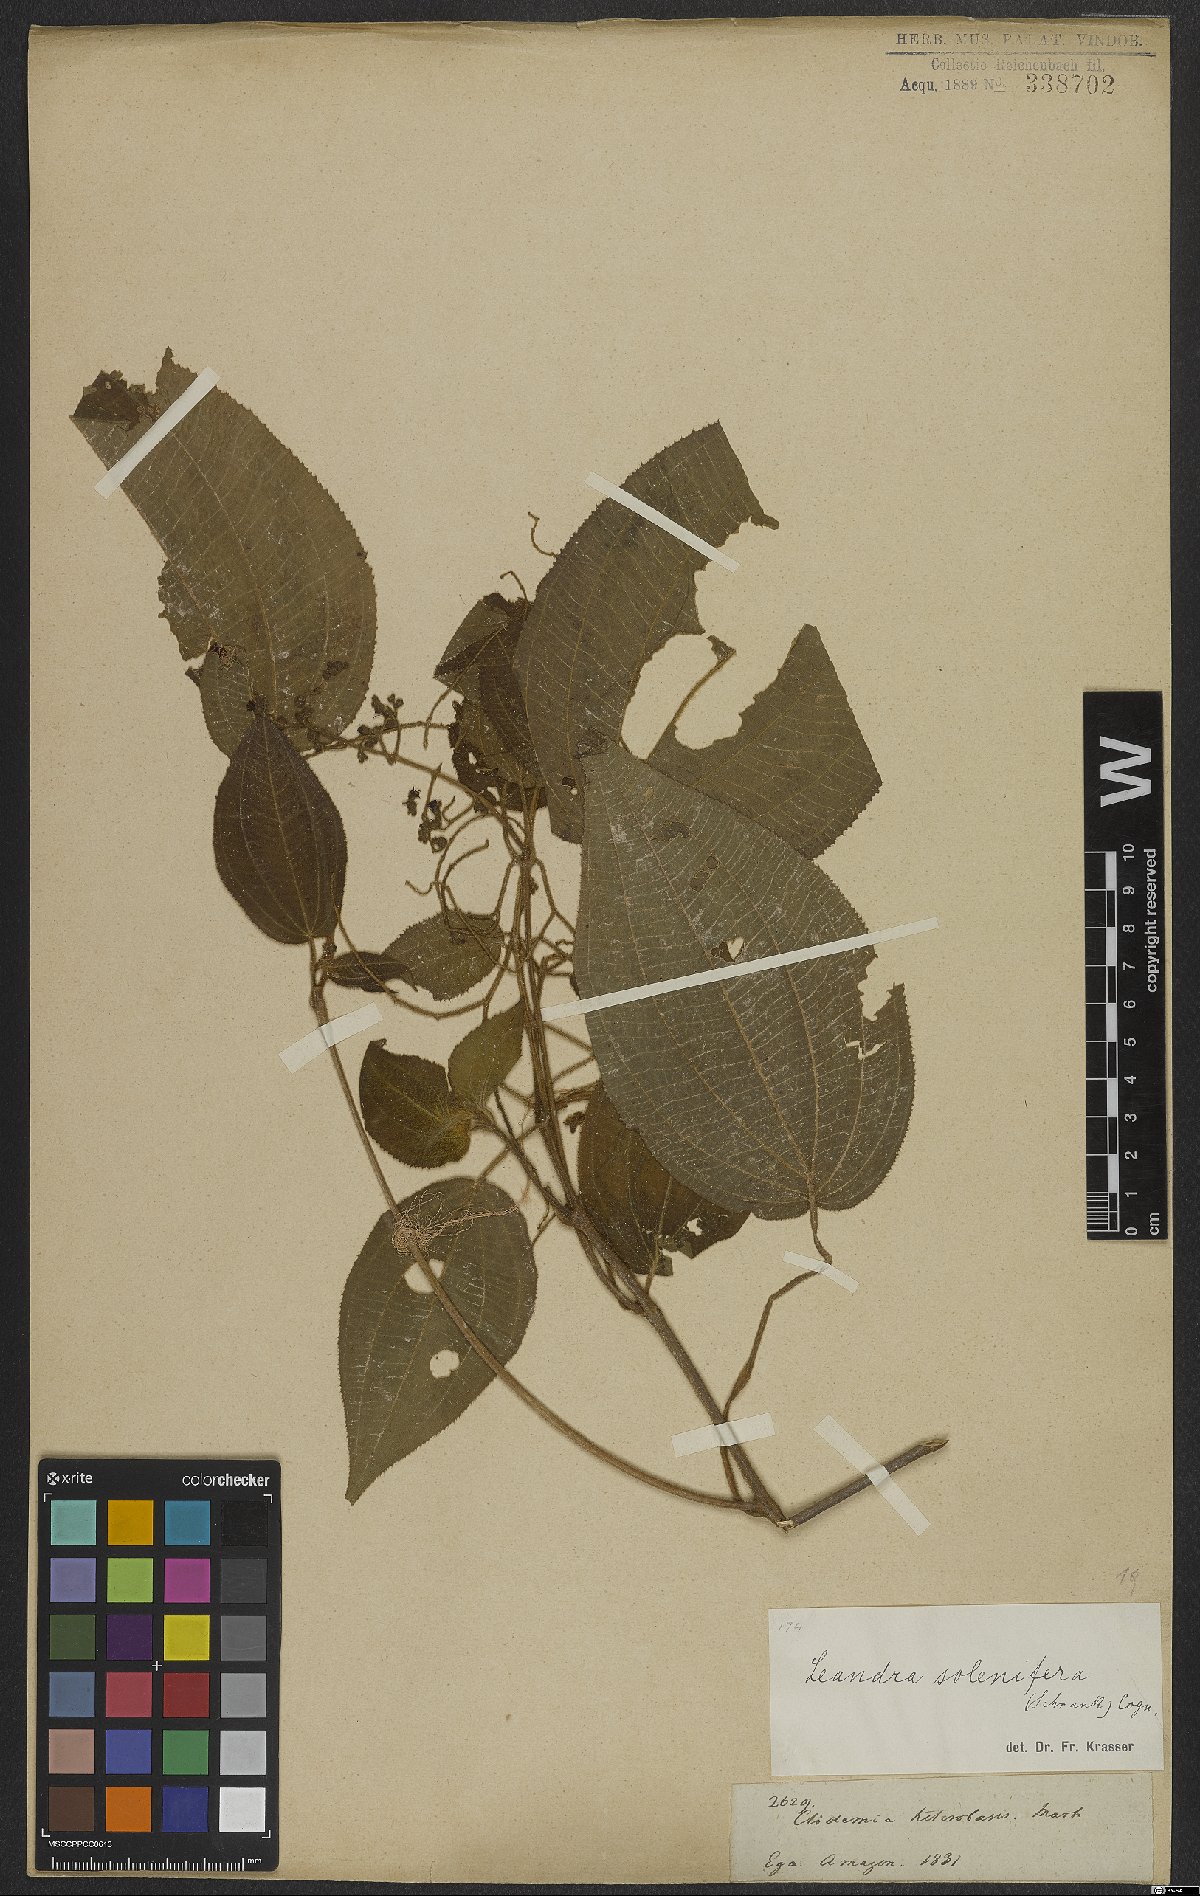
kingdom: Plantae
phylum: Tracheophyta
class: Magnoliopsida
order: Myrtales
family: Melastomataceae
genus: Miconia
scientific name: Miconia solenifera
